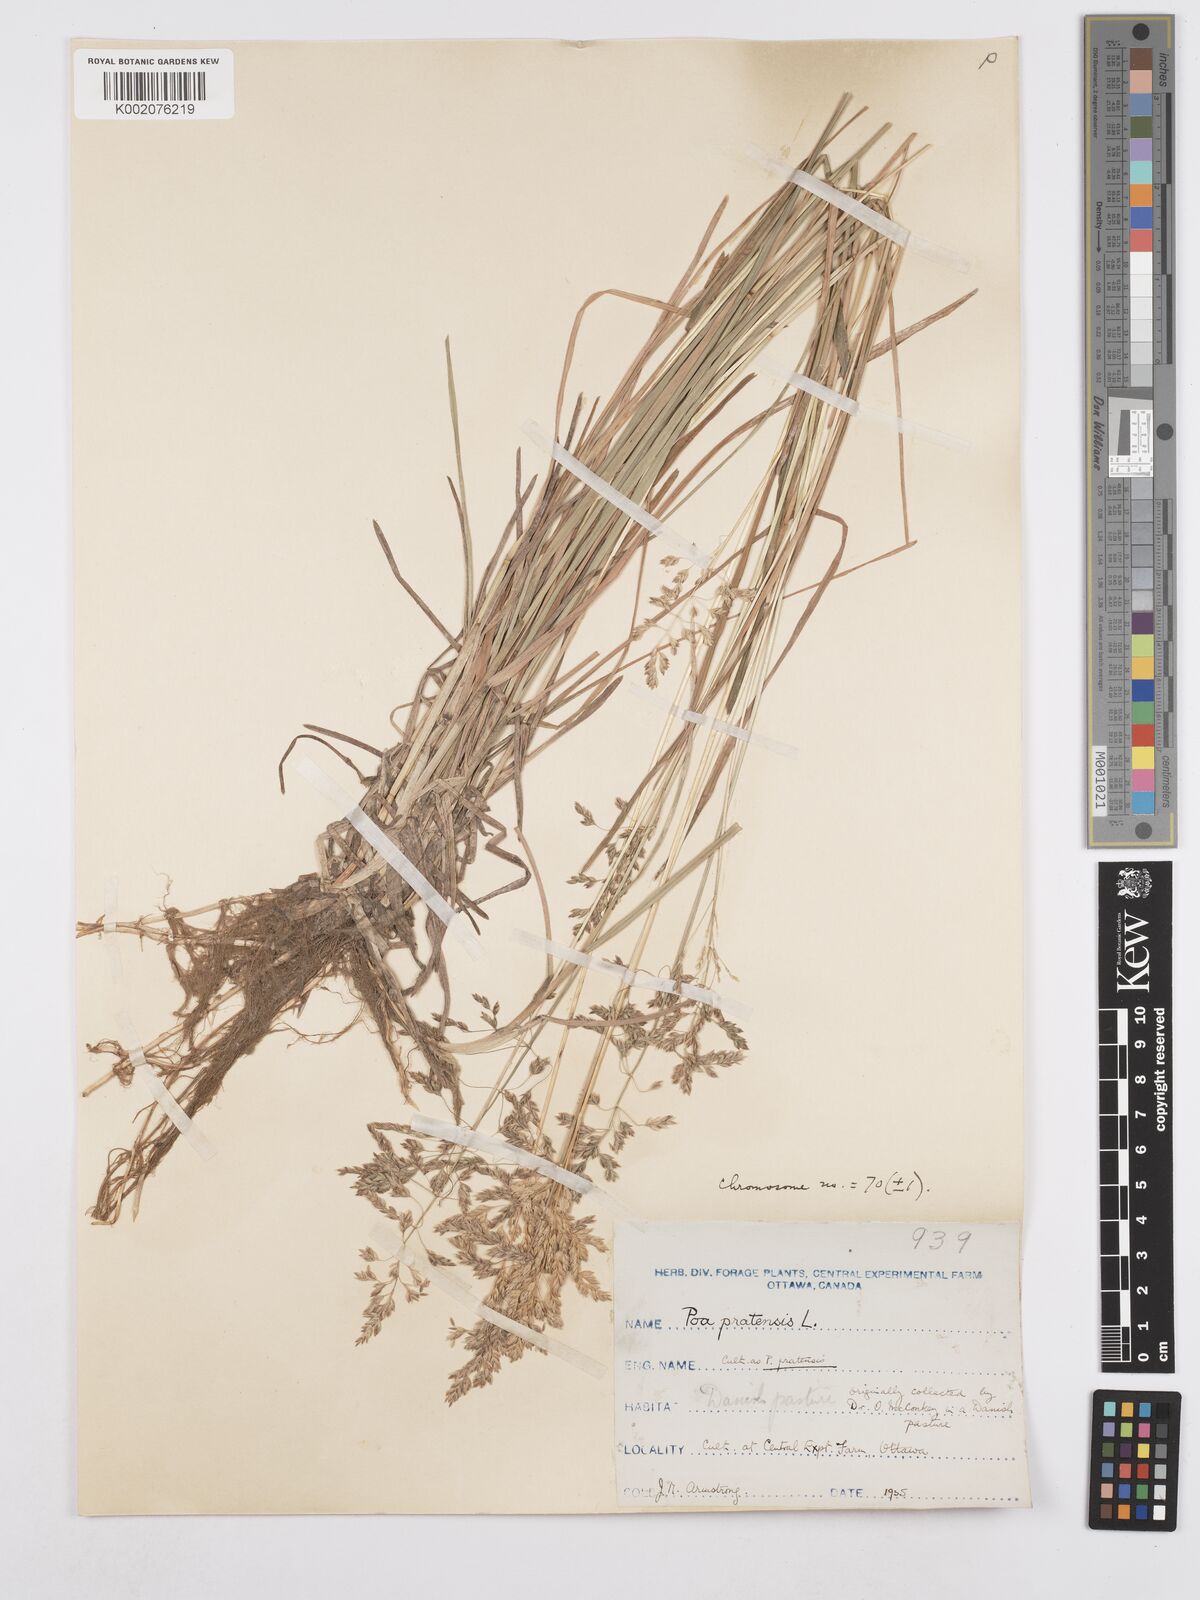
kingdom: Plantae
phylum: Tracheophyta
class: Liliopsida
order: Poales
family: Poaceae
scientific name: Poaceae
